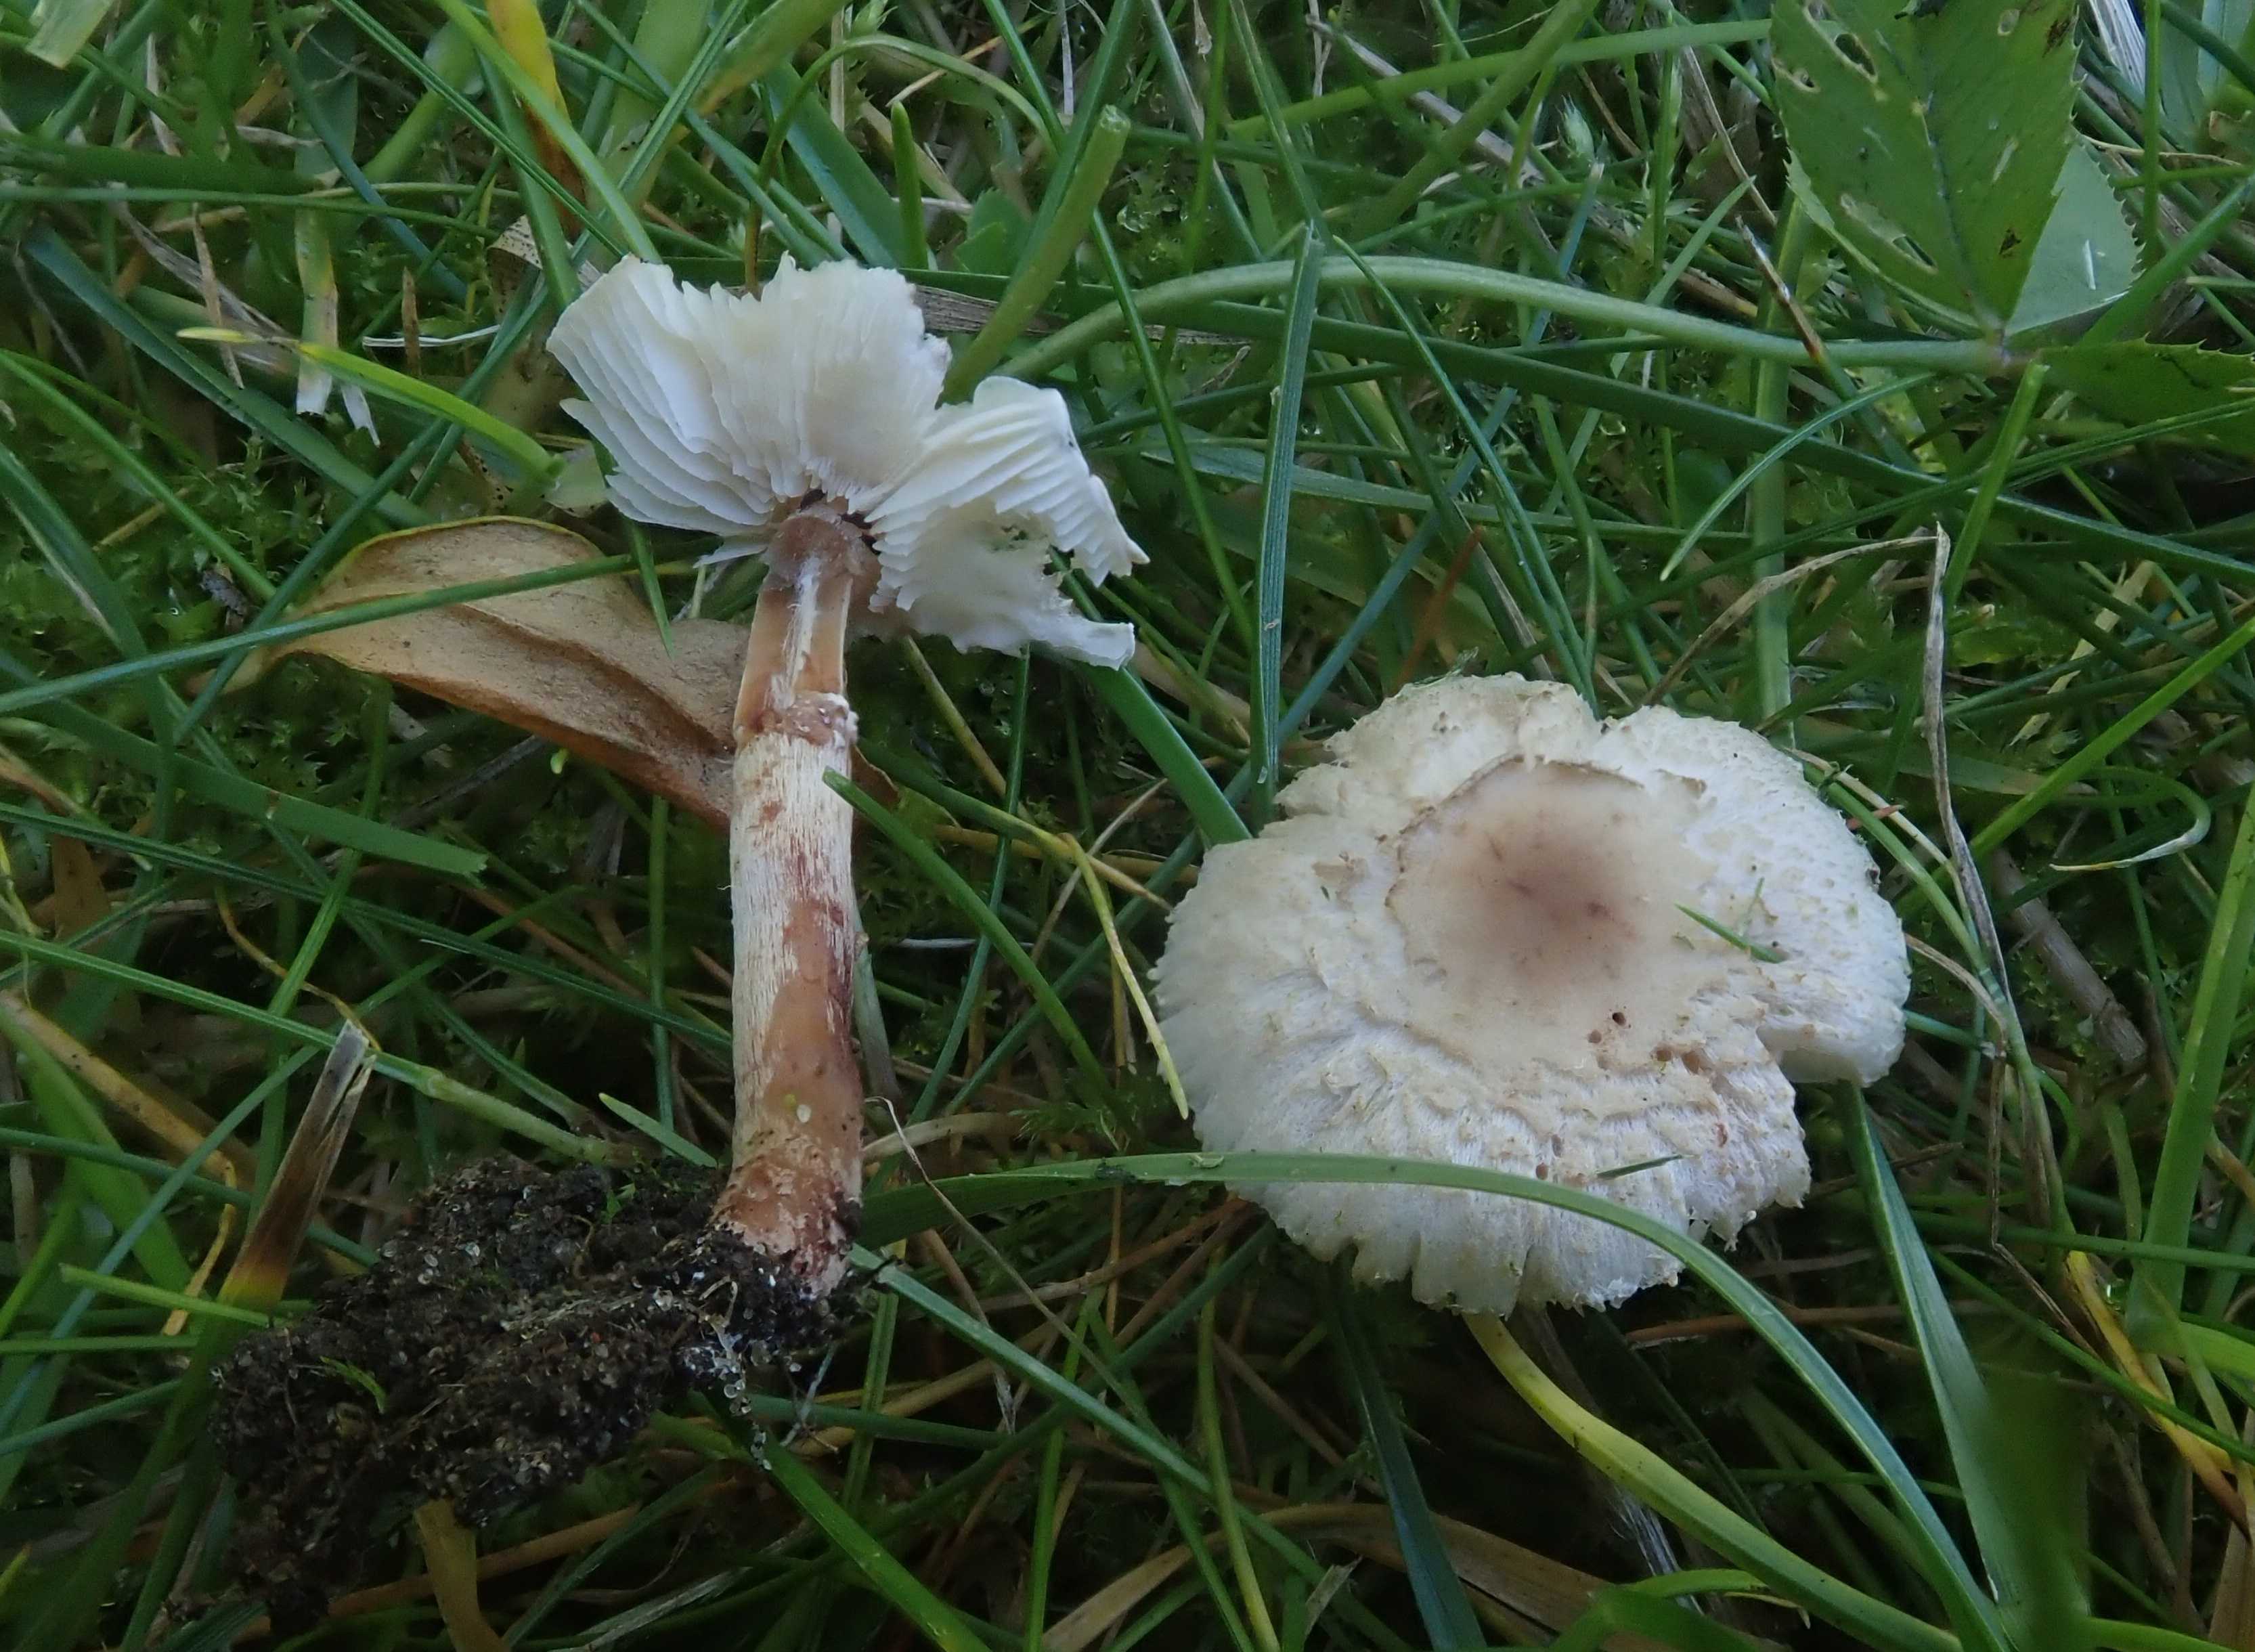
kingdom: Fungi
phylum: Basidiomycota
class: Agaricomycetes
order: Agaricales
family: Agaricaceae
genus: Lepiota
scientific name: Lepiota lilacea
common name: lillabrun parasolhat
